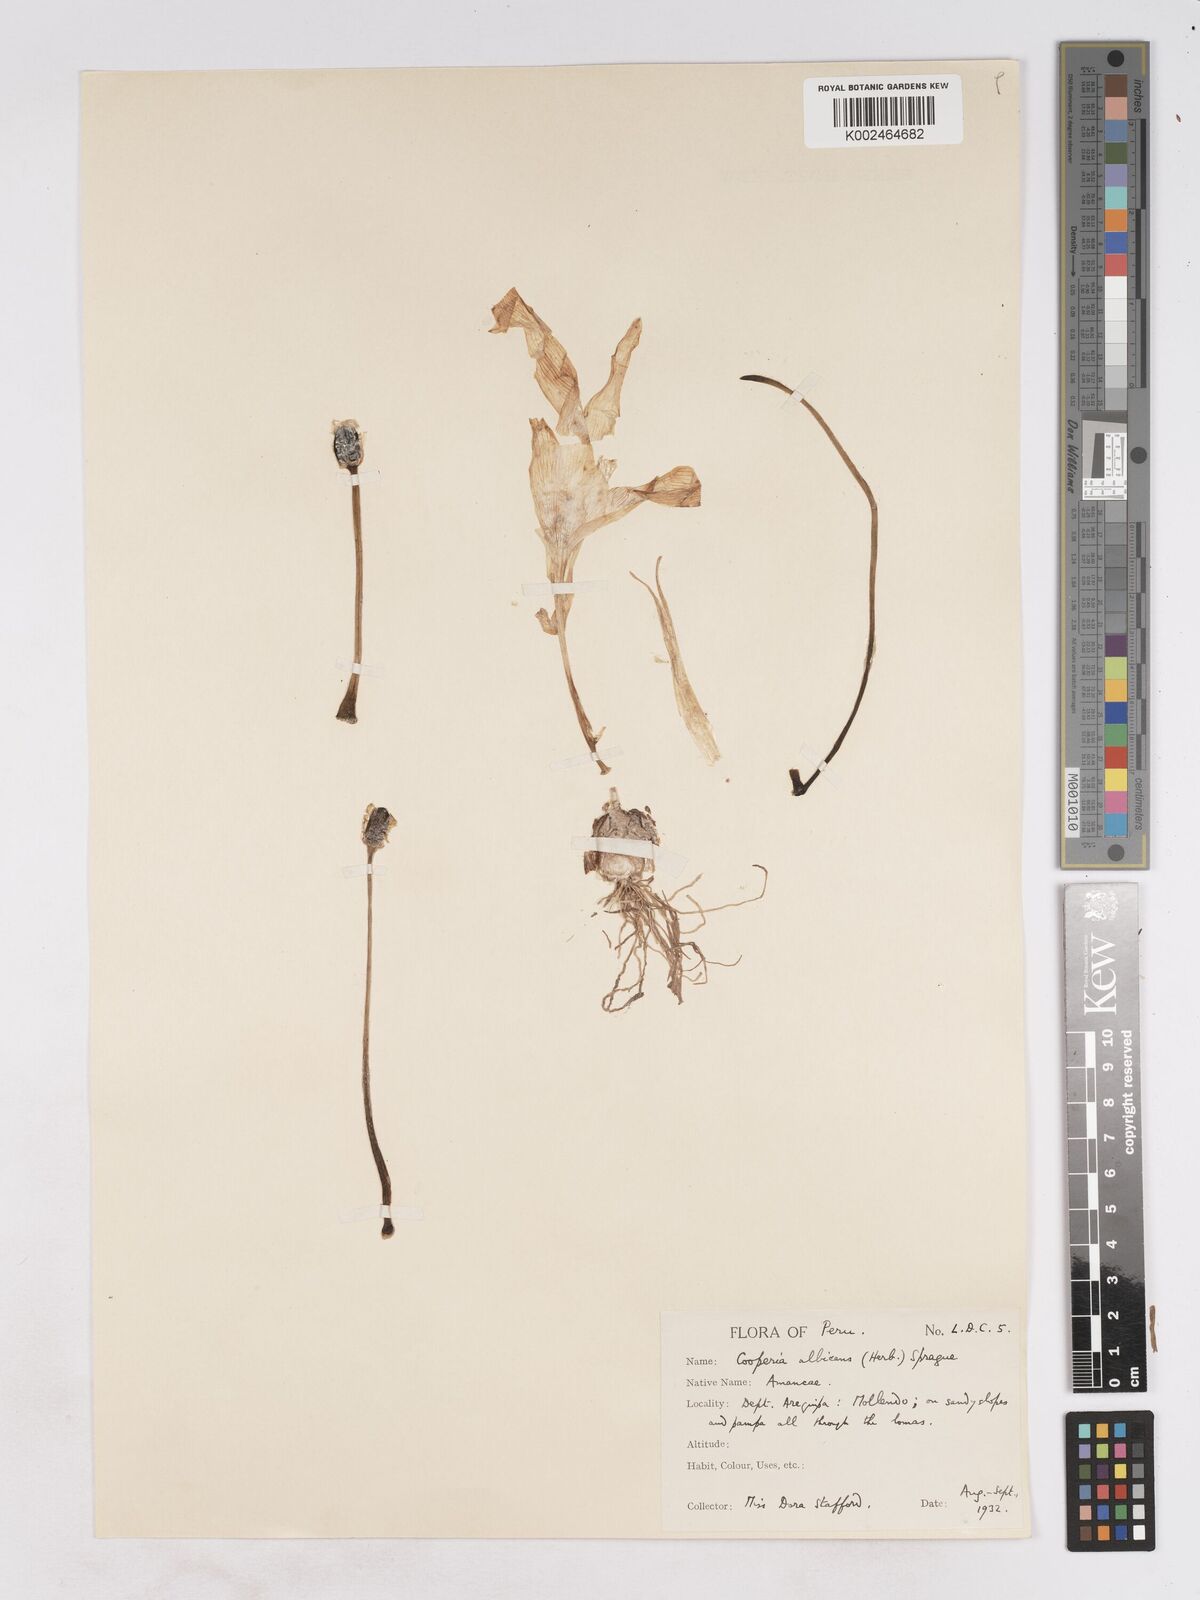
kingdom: Plantae
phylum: Tracheophyta
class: Liliopsida
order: Asparagales
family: Amaryllidaceae
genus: Pyrolirion
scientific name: Pyrolirion albicans
